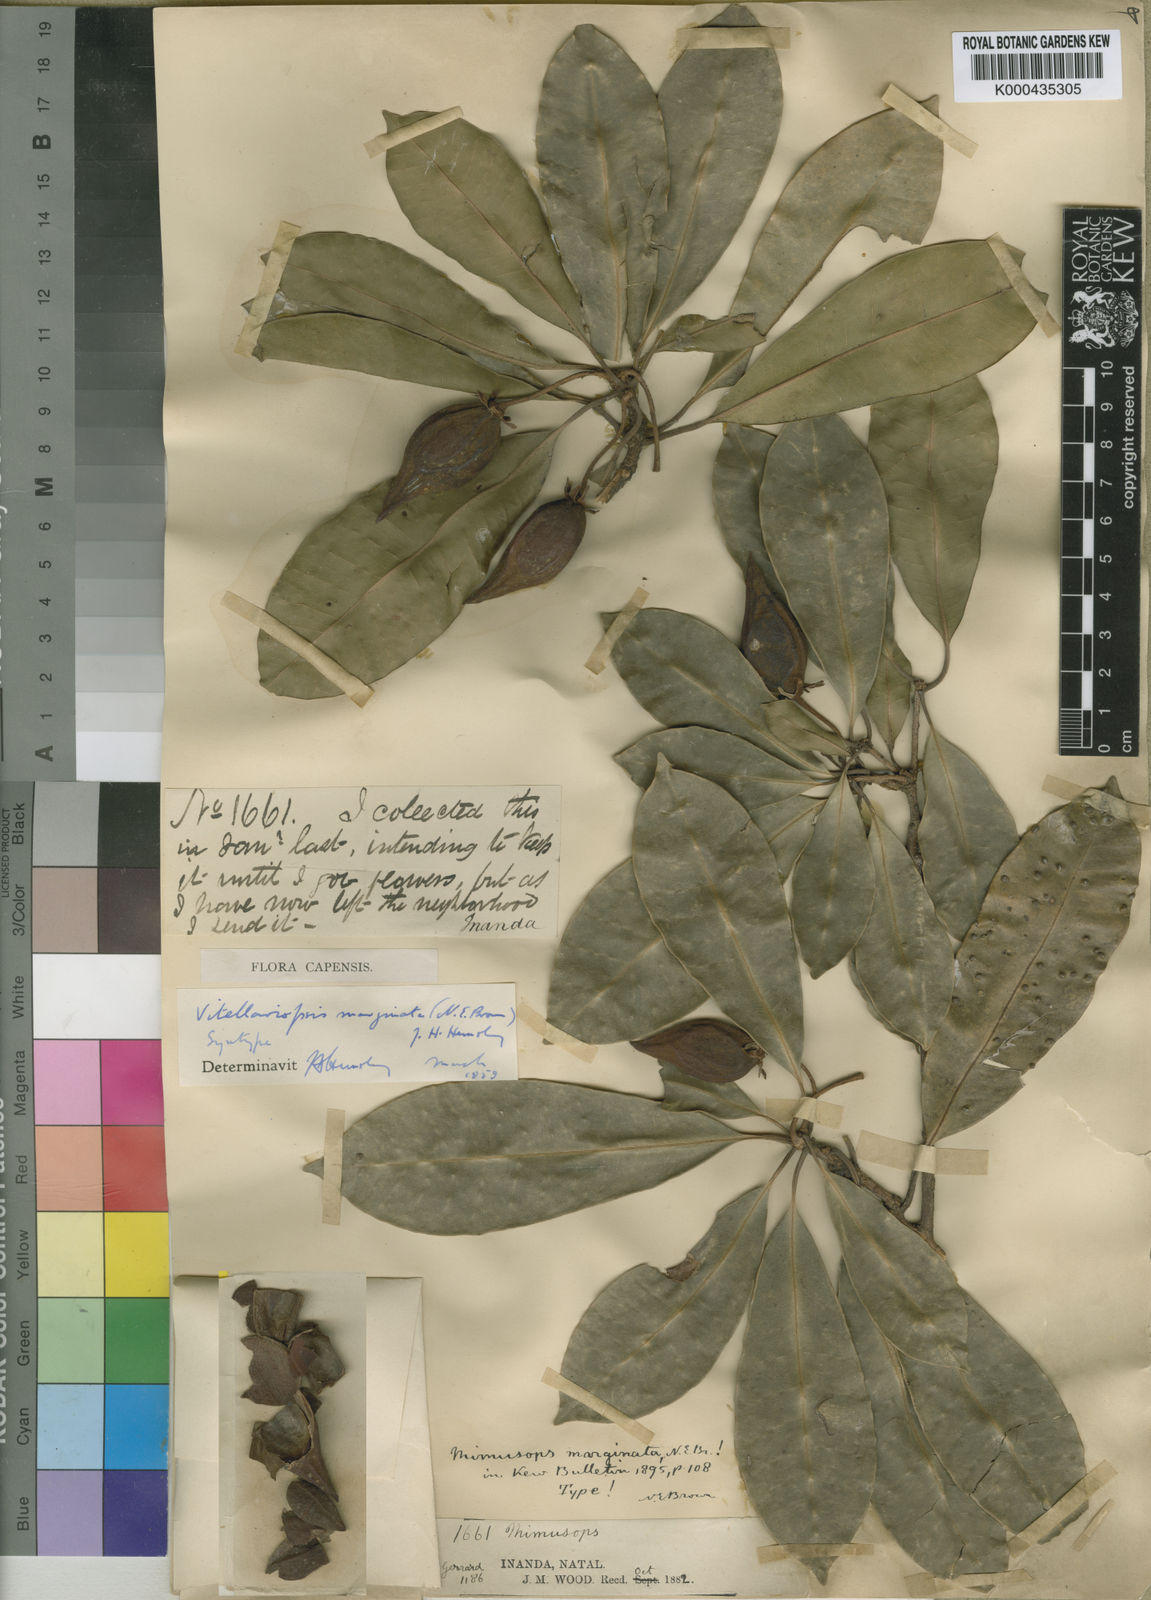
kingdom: Plantae
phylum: Tracheophyta
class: Magnoliopsida
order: Ericales
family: Sapotaceae
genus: Vitellariopsis
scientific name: Vitellariopsis marginata
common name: Flatcap milkwood
